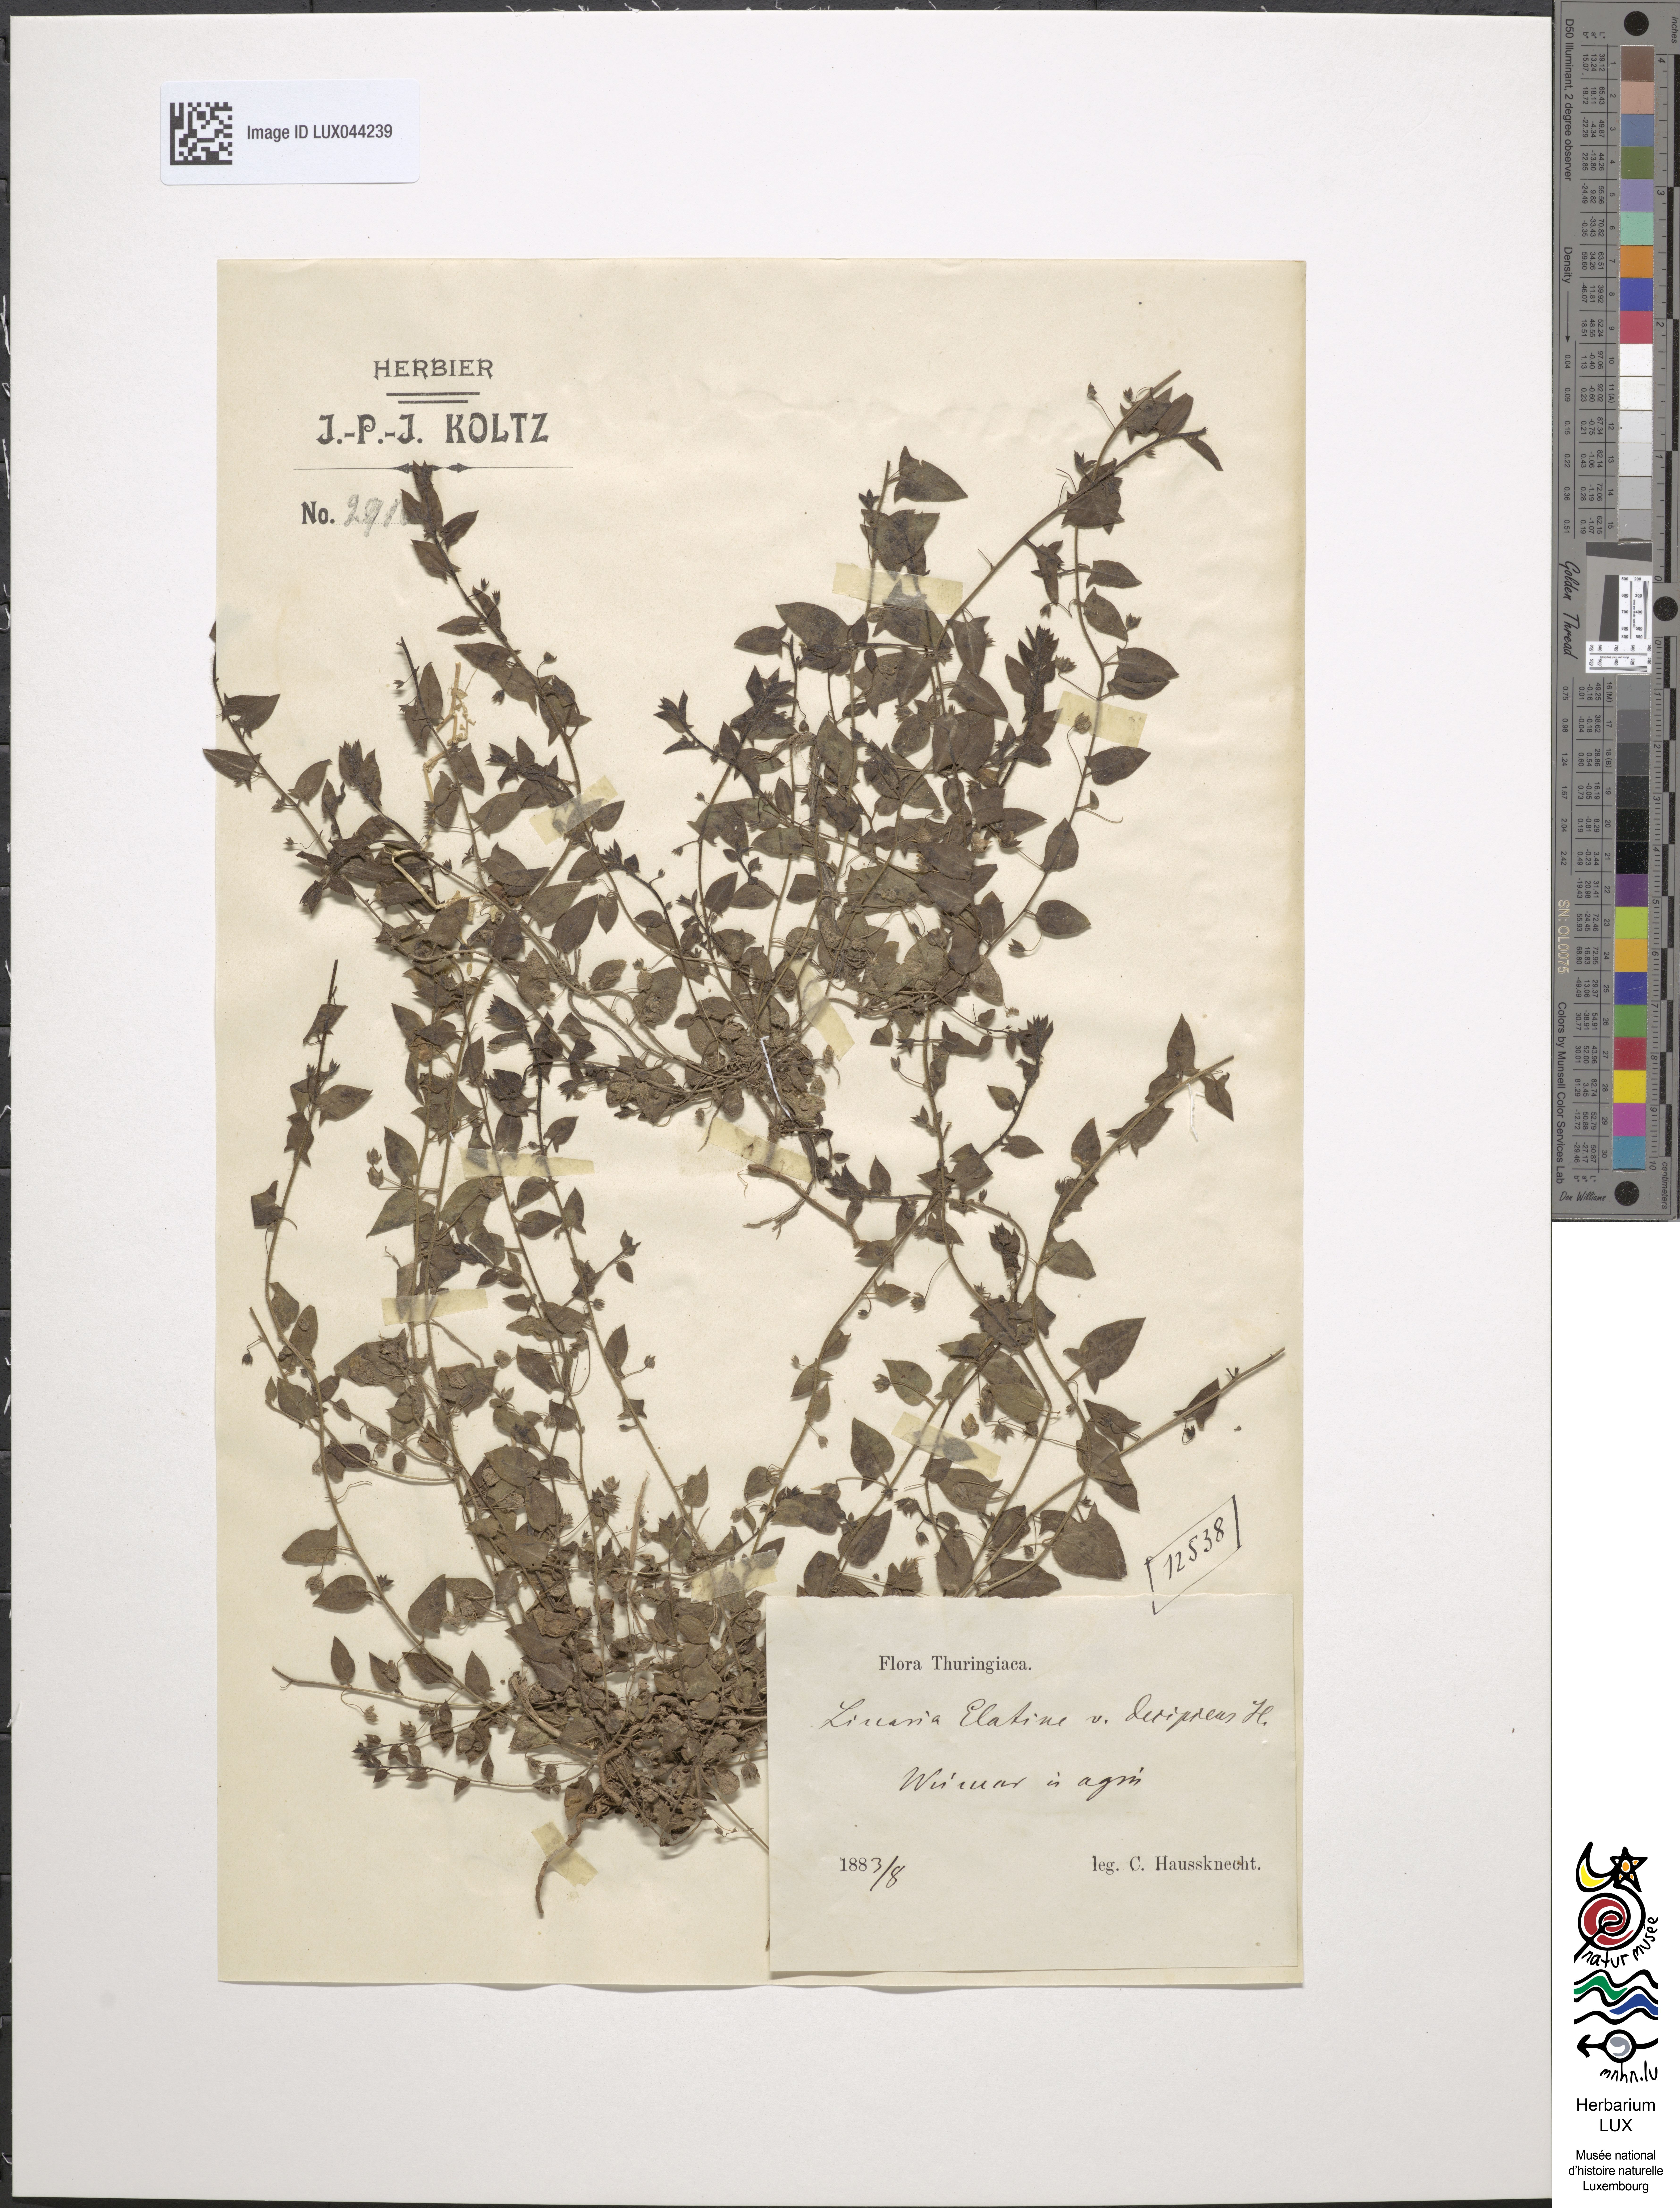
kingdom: Plantae
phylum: Tracheophyta
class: Magnoliopsida
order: Lamiales
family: Plantaginaceae
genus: Kickxia
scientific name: Kickxia elatine
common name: Sharp-leaved fluellen
